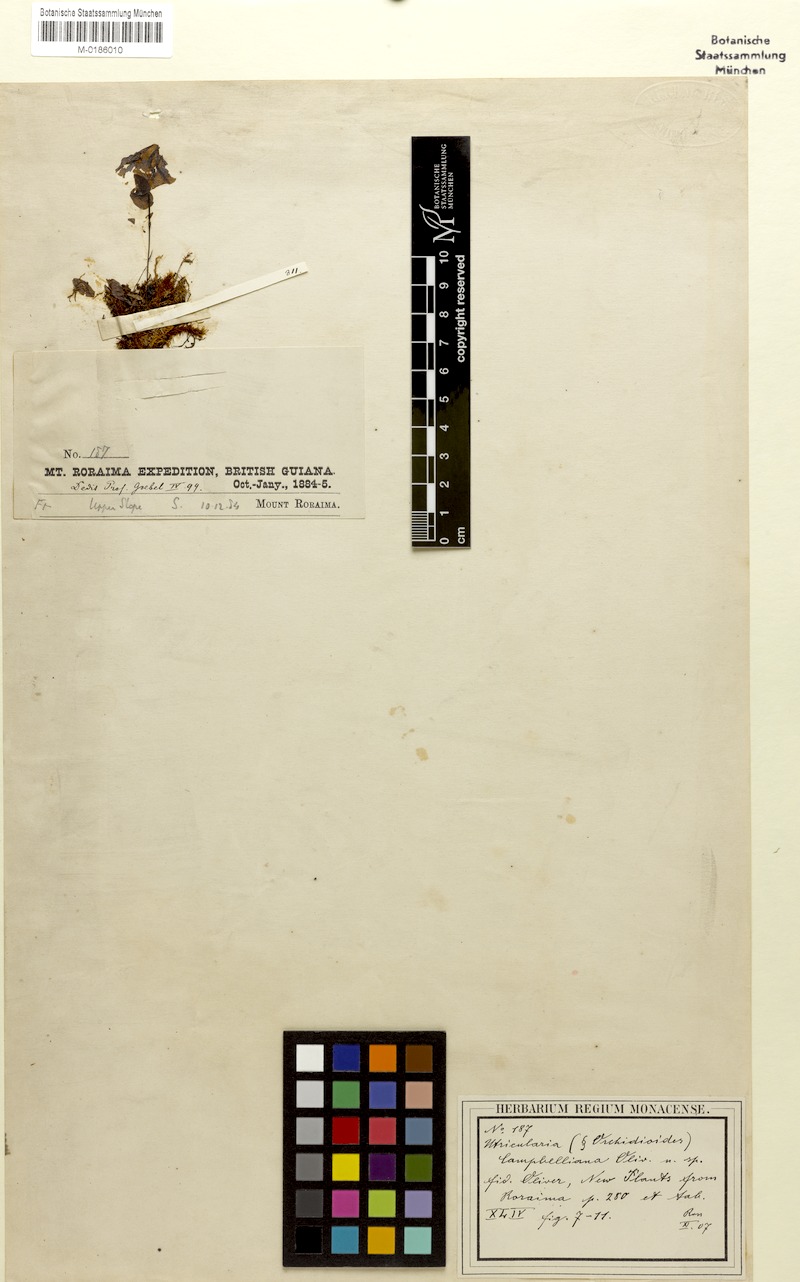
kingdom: Plantae
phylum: Tracheophyta
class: Magnoliopsida
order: Lamiales
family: Lentibulariaceae
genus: Utricularia
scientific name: Utricularia campbelliana
